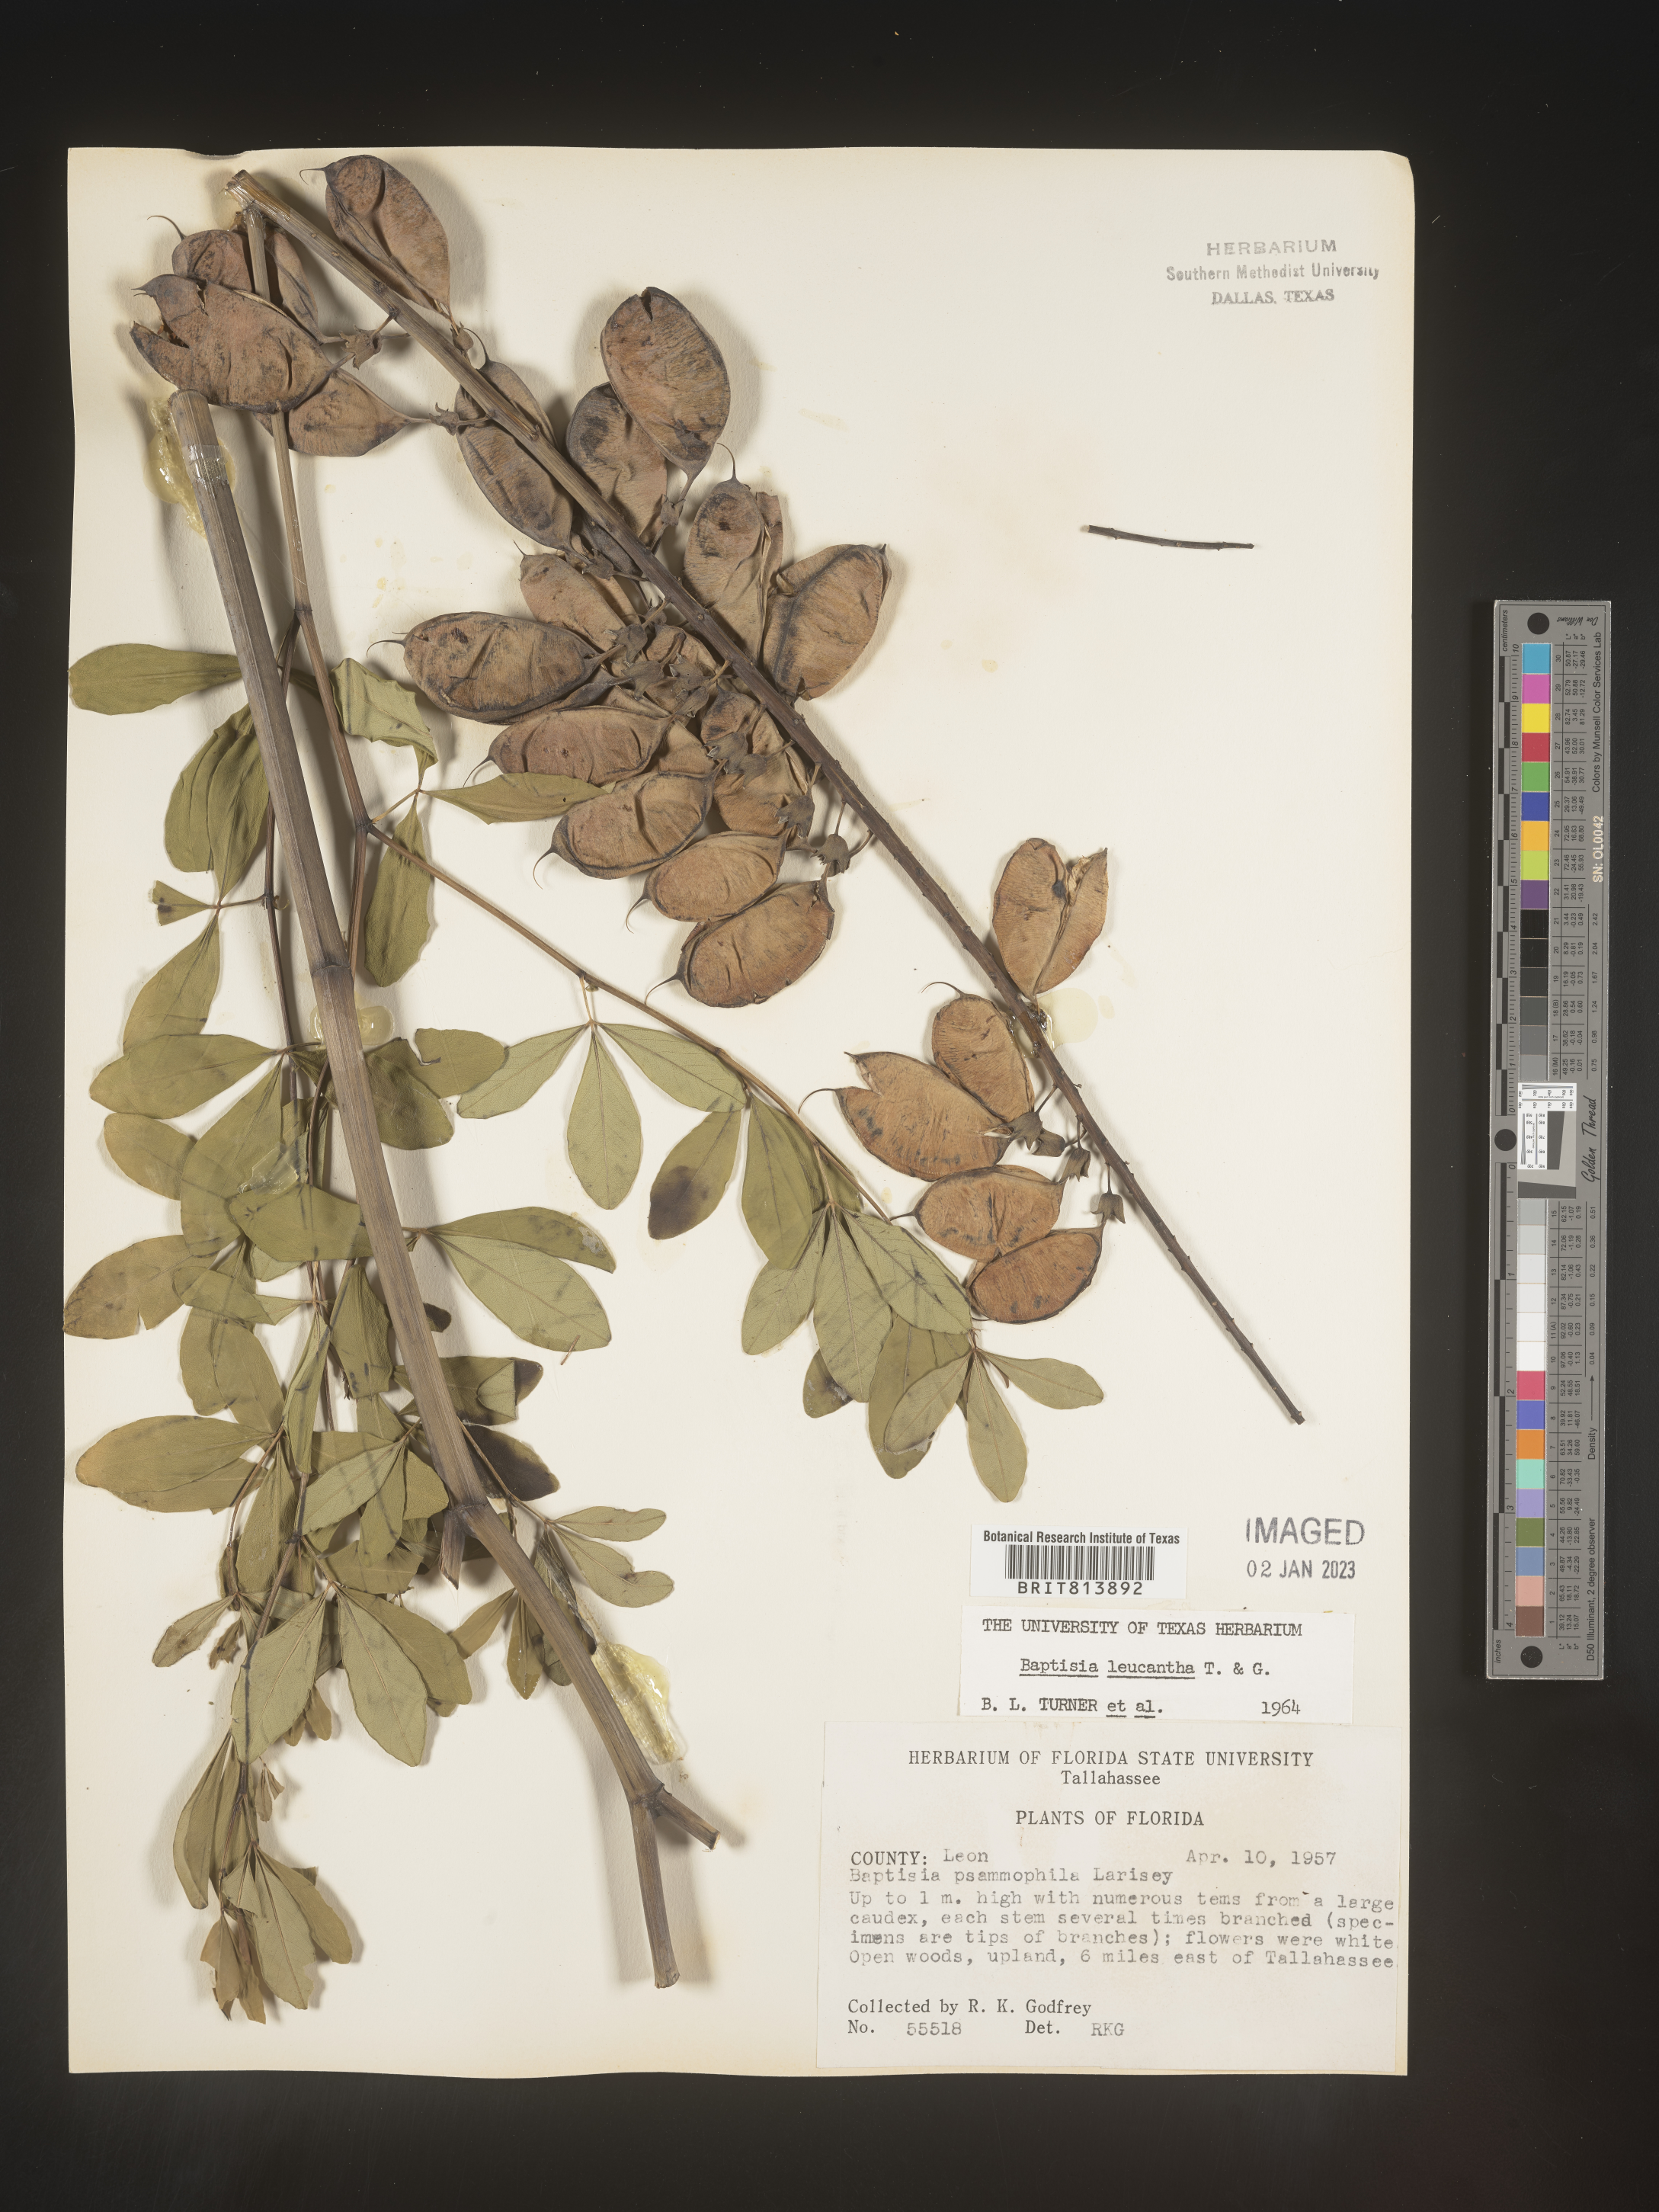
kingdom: Plantae
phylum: Tracheophyta
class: Magnoliopsida
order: Fabales
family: Fabaceae
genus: Baptisia
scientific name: Baptisia alba
